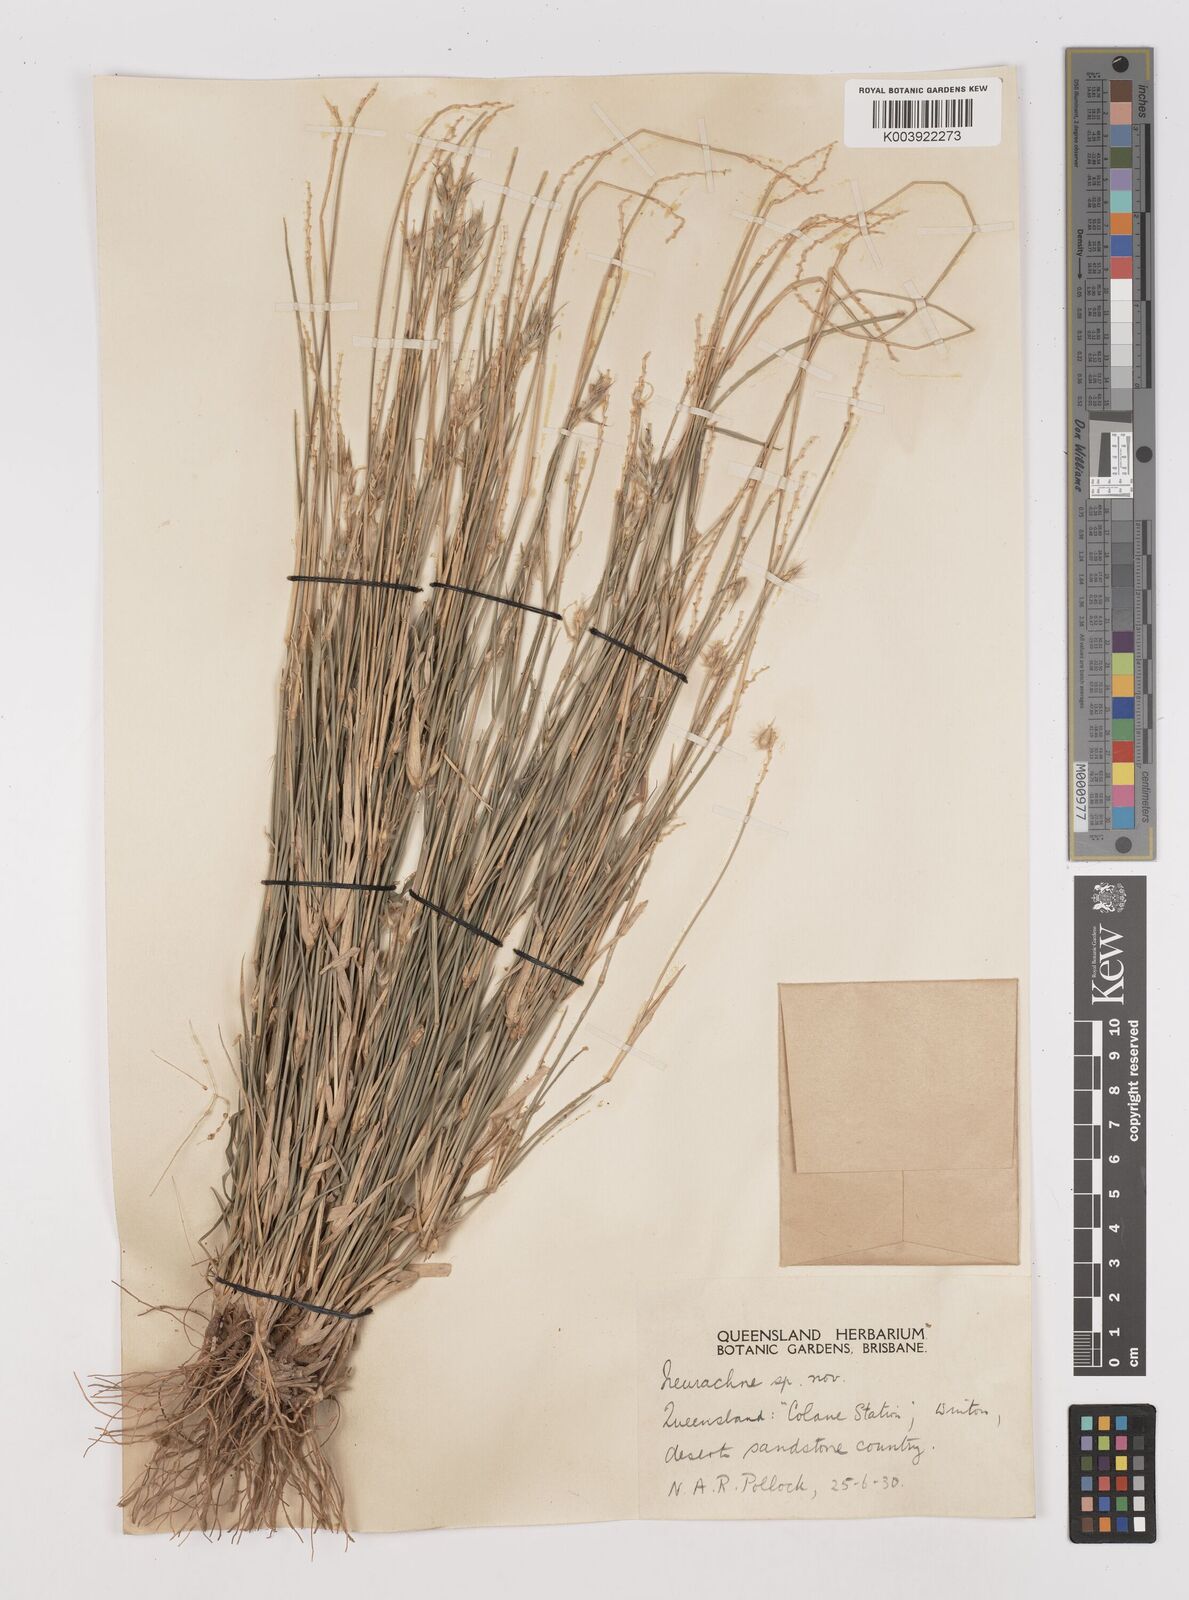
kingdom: Plantae
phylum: Tracheophyta
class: Liliopsida
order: Poales
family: Poaceae
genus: Neurachne
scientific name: Neurachne muelleri
